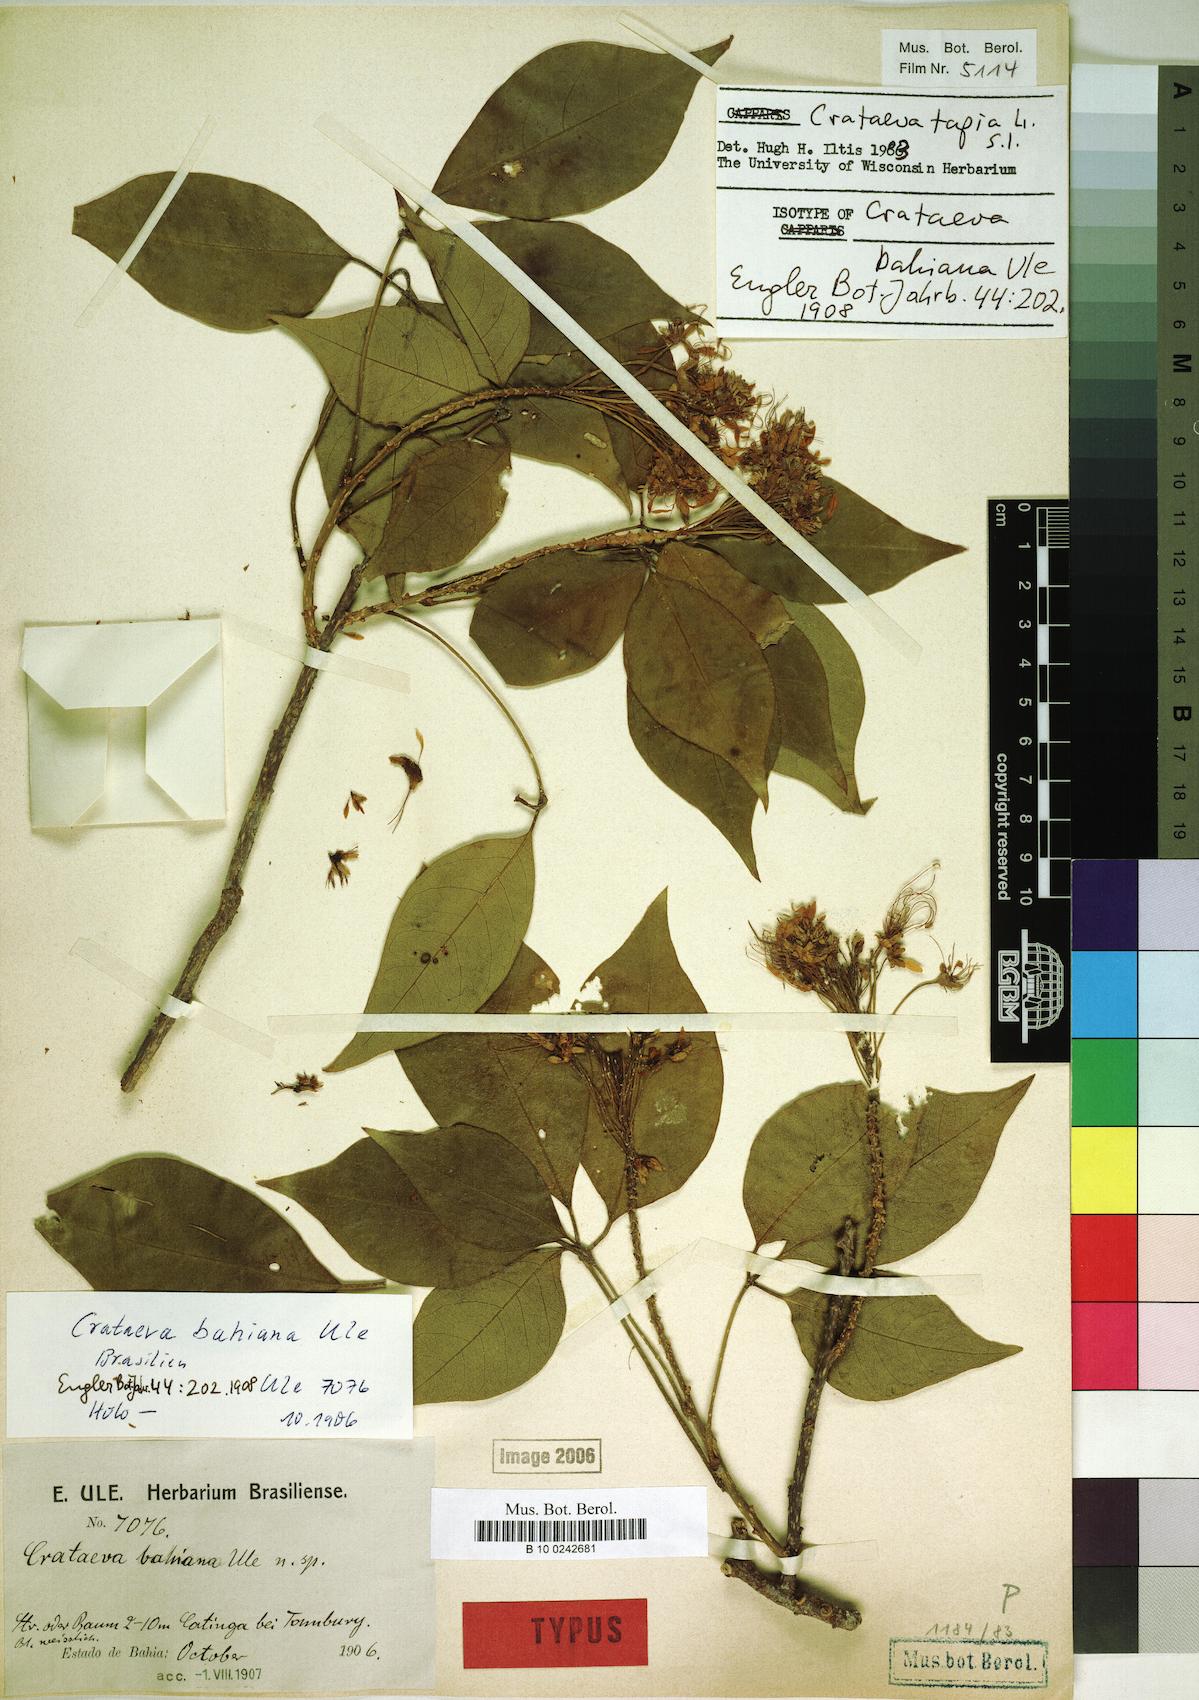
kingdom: Plantae
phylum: Tracheophyta
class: Magnoliopsida
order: Brassicales
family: Capparaceae
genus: Crateva
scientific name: Crateva tapia
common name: Garlic-pear
